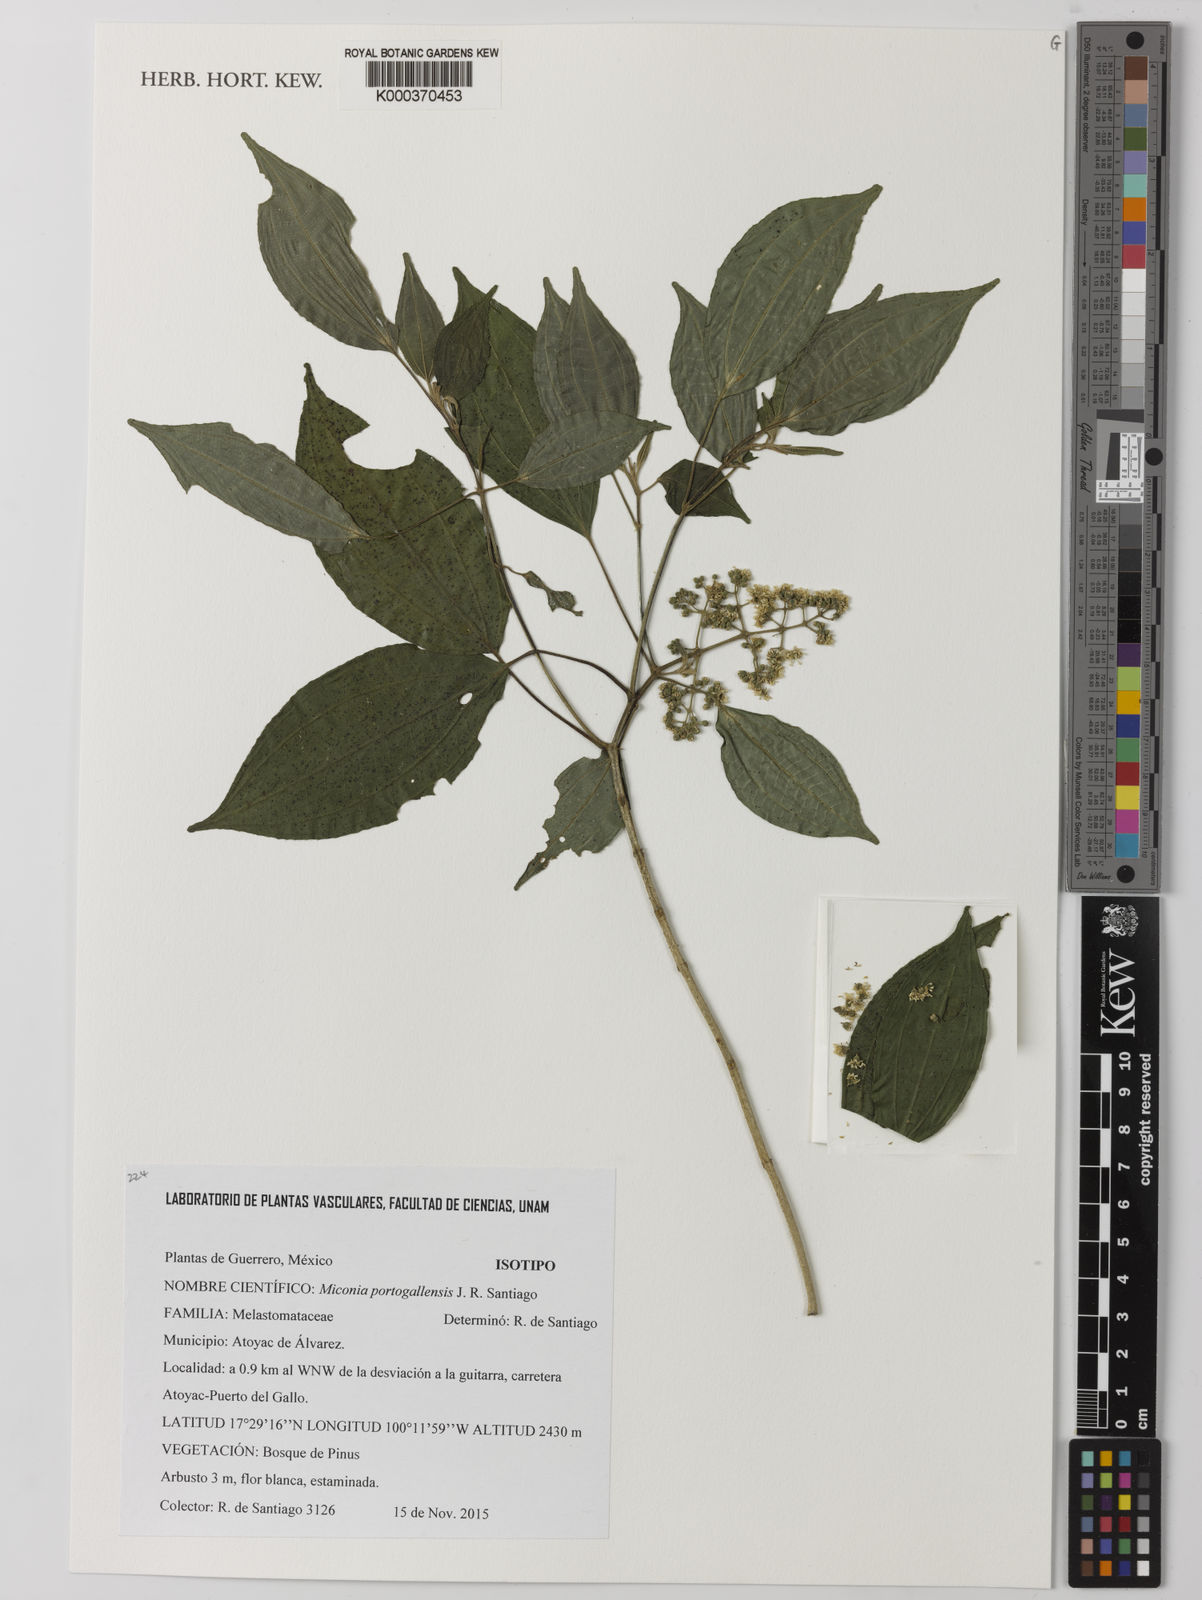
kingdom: Plantae
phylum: Tracheophyta
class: Magnoliopsida
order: Myrtales
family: Melastomataceae
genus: Miconia
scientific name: Miconia portogallensis
